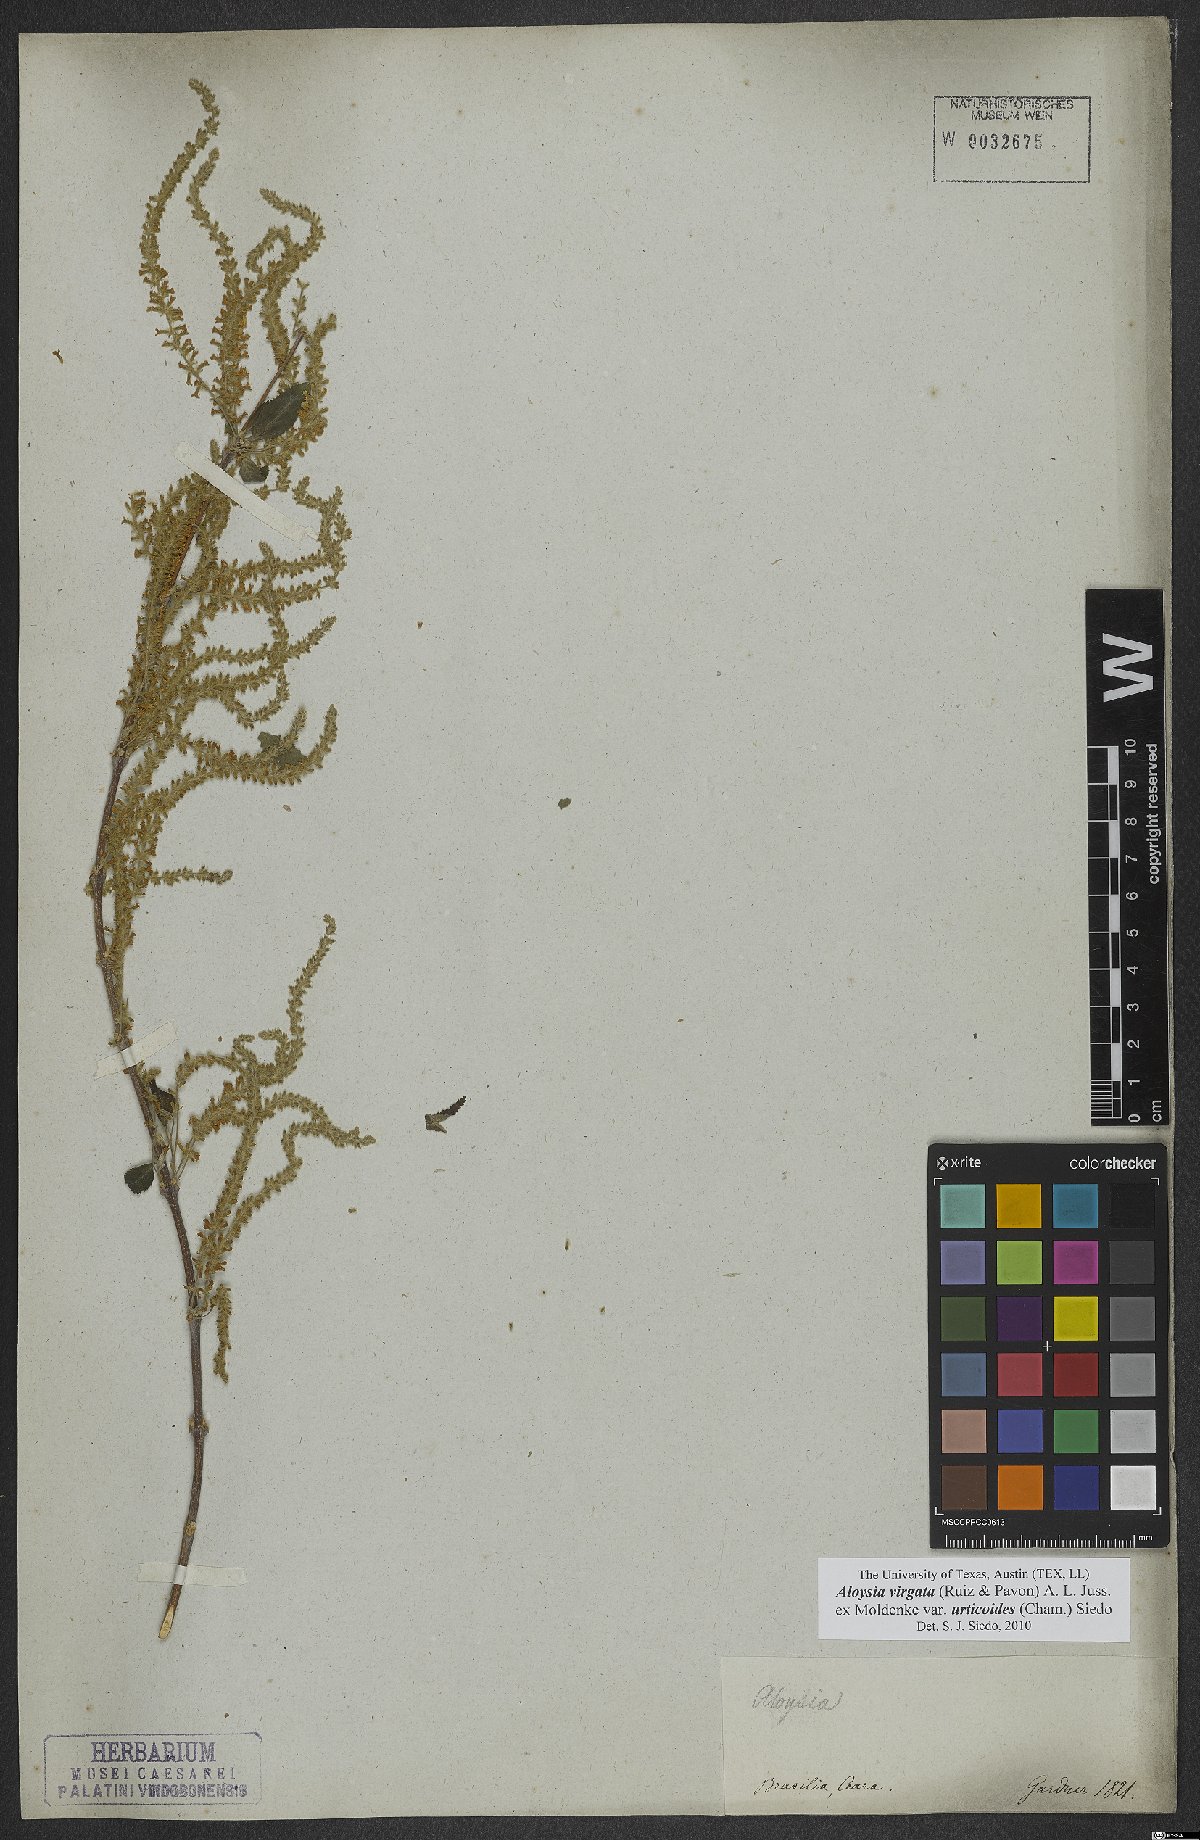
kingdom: Plantae
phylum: Tracheophyta
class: Magnoliopsida
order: Lamiales
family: Verbenaceae
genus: Aloysia
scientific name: Aloysia virgata
